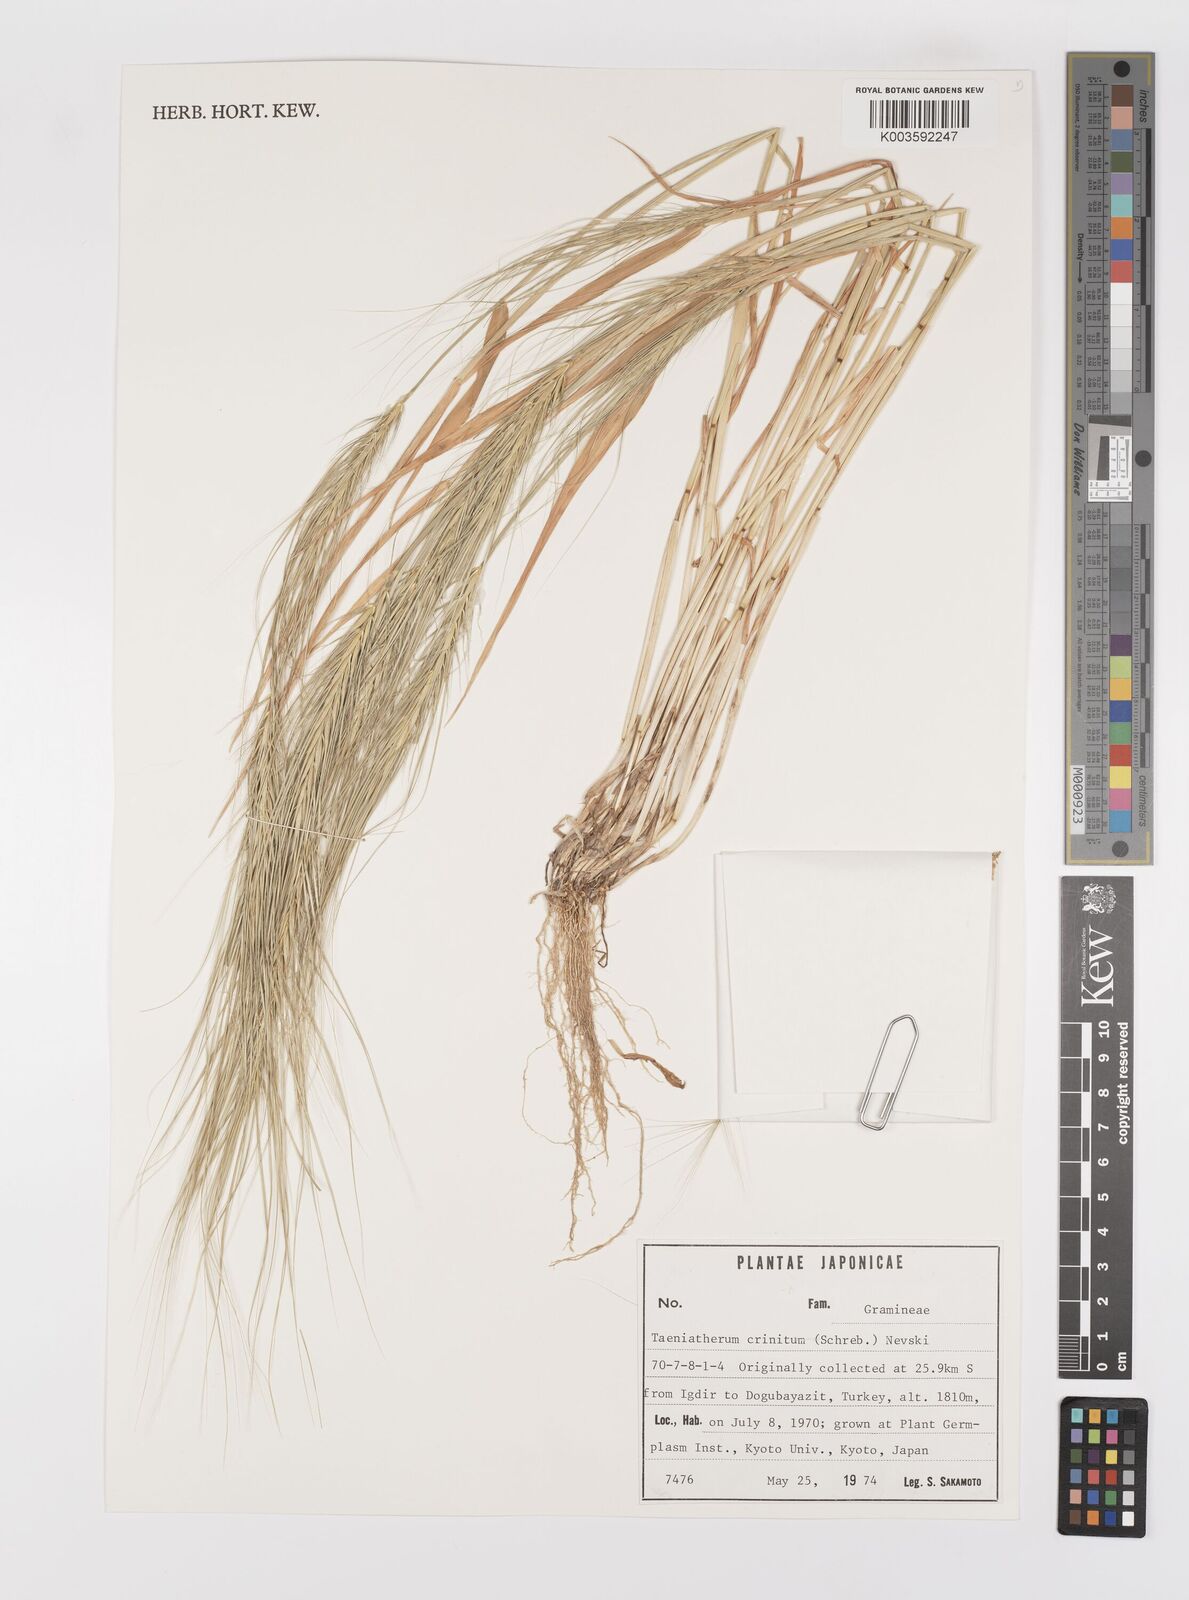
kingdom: Plantae
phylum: Tracheophyta
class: Liliopsida
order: Poales
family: Poaceae
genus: Taeniatherum
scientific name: Taeniatherum caput-medusae
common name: Medusahead
